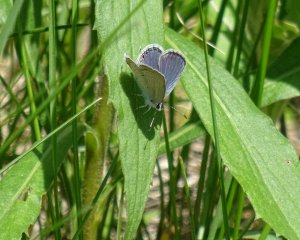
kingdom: Animalia
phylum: Arthropoda
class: Insecta
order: Lepidoptera
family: Lycaenidae
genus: Elkalyce
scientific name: Elkalyce comyntas
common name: Eastern Tailed-Blue
